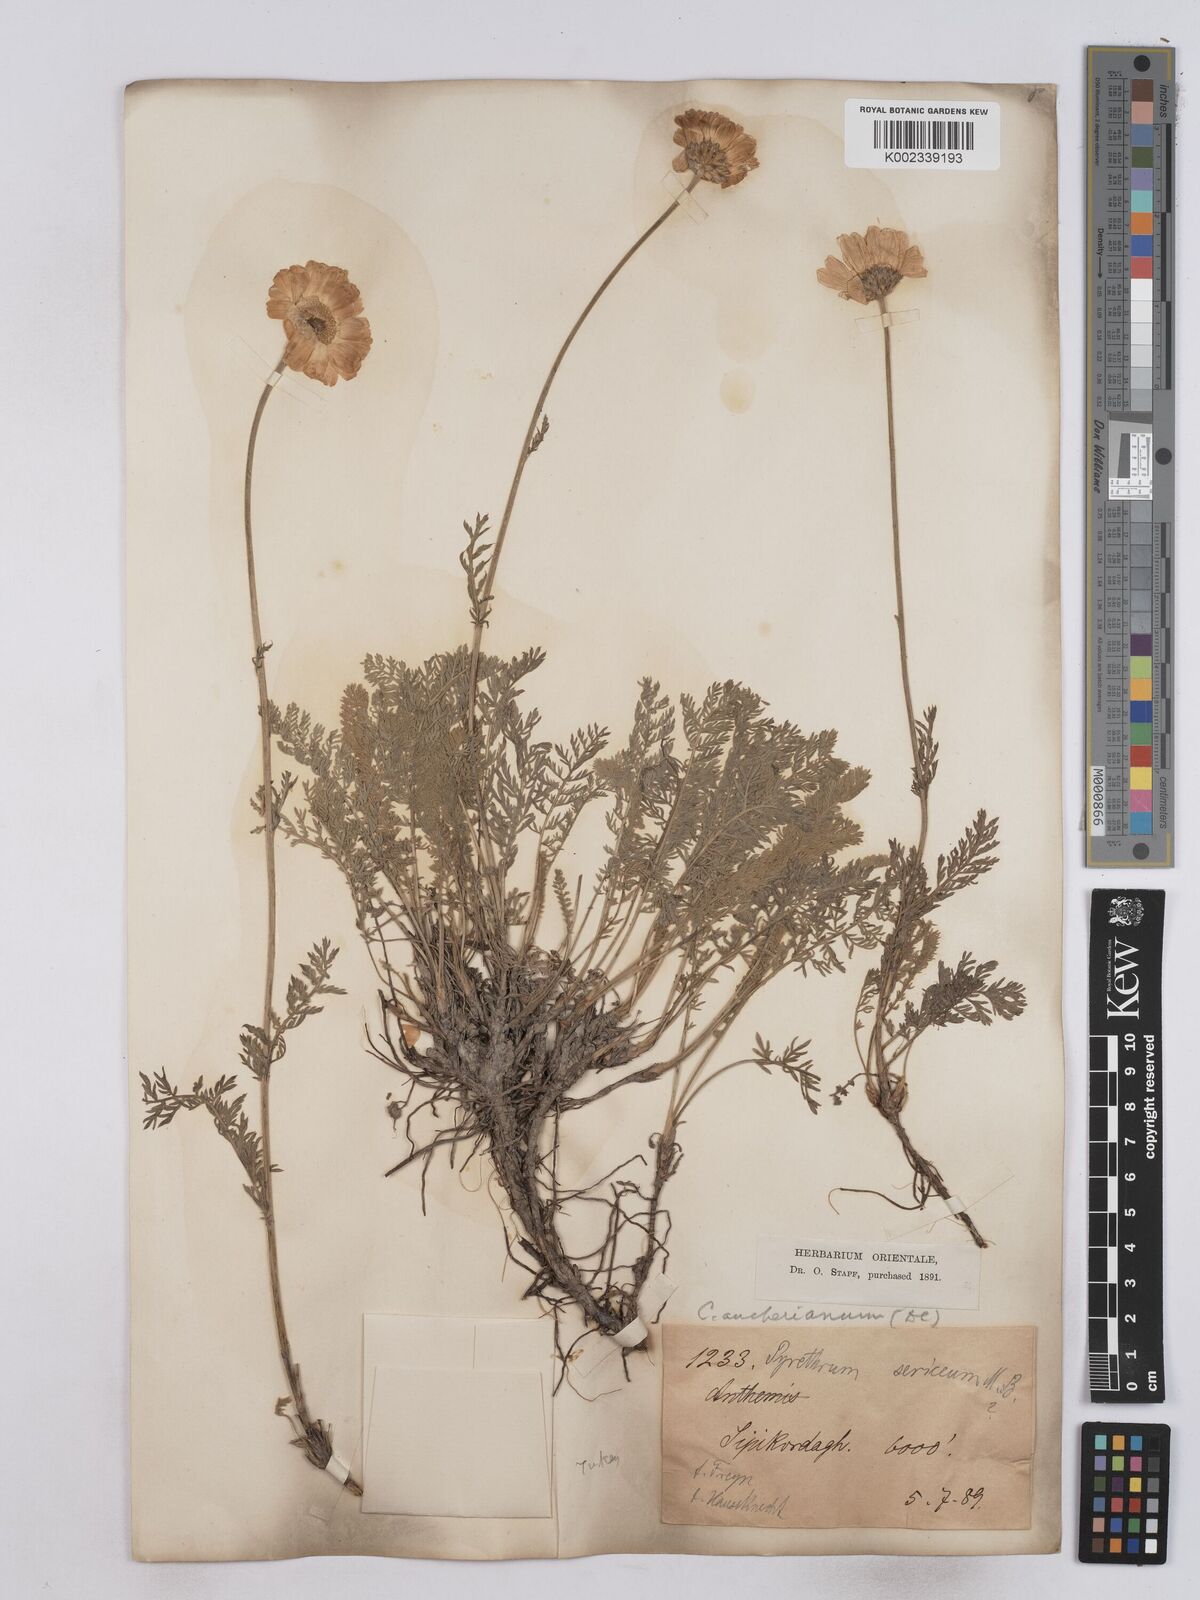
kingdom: Plantae
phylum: Tracheophyta
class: Magnoliopsida
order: Asterales
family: Asteraceae
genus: Tanacetum
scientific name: Tanacetum aucherianum
